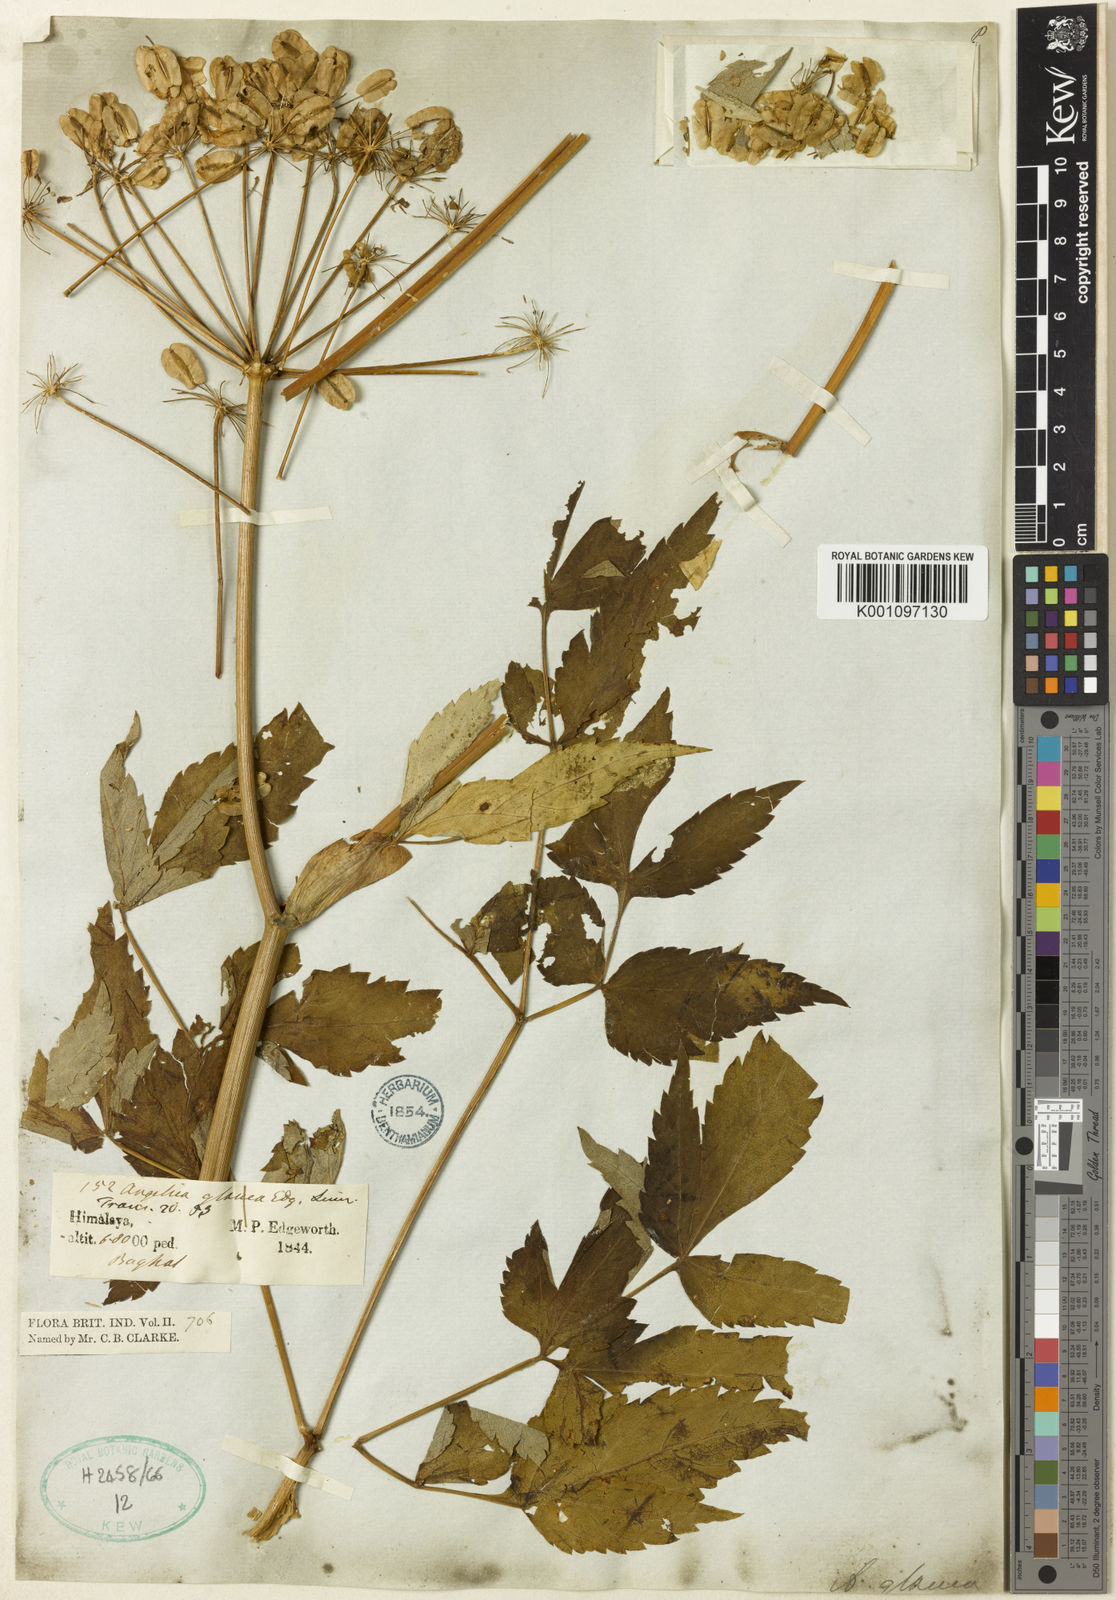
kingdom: Plantae
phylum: Tracheophyta
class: Magnoliopsida
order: Apiales
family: Apiaceae
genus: Angelica
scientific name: Angelica glauca
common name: Smooth angelica
